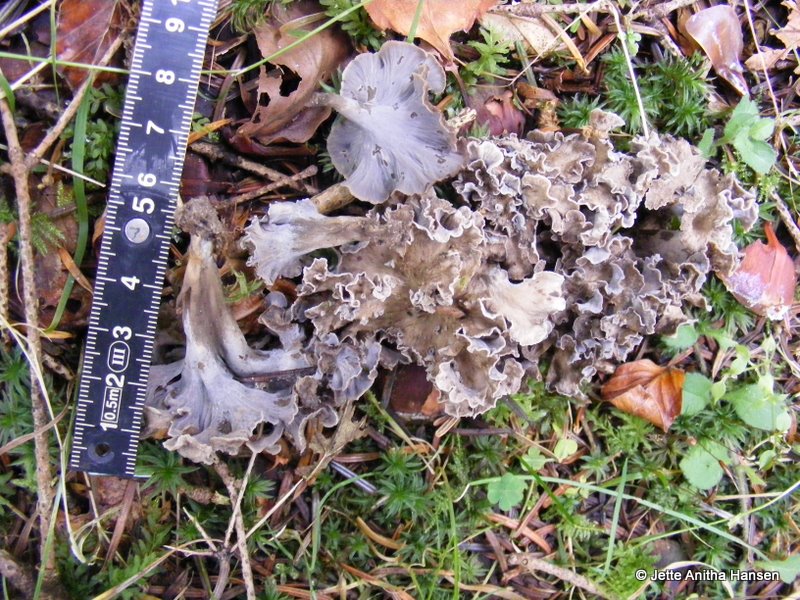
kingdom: Fungi
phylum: Basidiomycota
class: Agaricomycetes
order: Cantharellales
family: Hydnaceae
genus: Craterellus
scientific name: Craterellus undulatus
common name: liden kantarel
